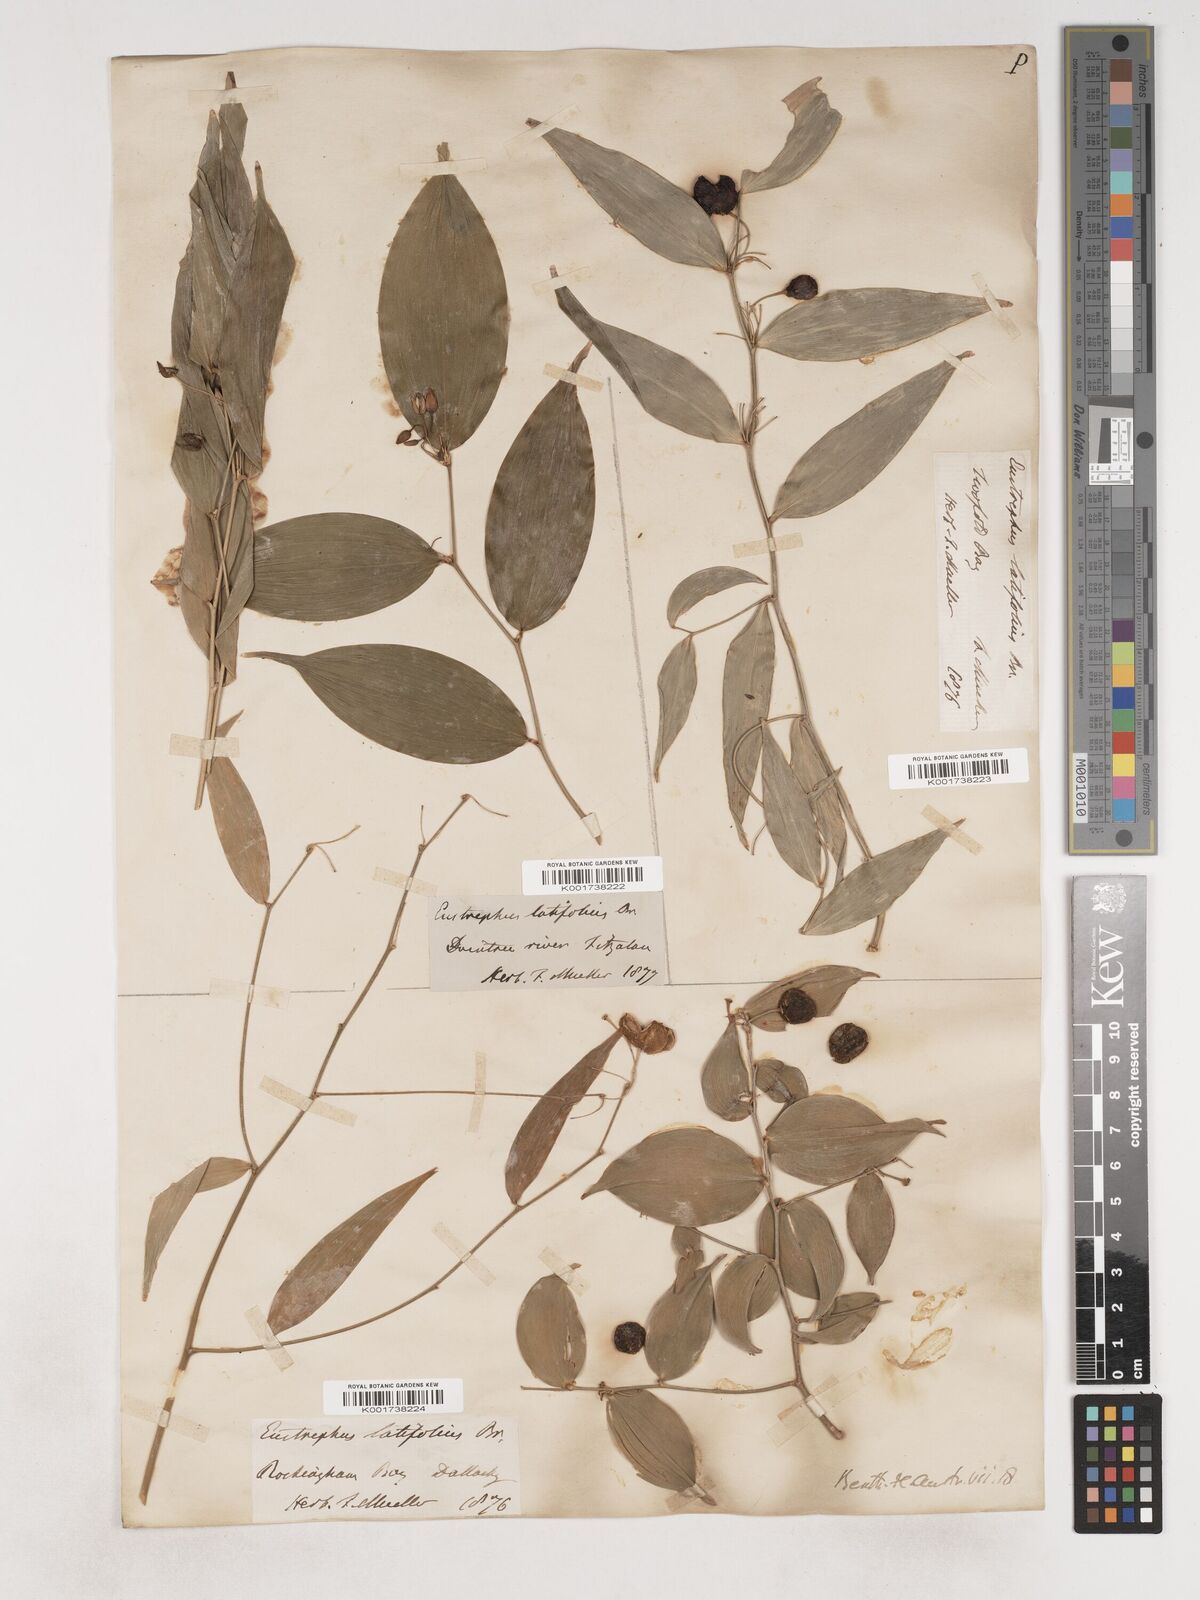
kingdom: Plantae
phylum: Tracheophyta
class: Liliopsida
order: Asparagales
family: Asparagaceae
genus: Eustrephus
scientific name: Eustrephus latifolius
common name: Orangevine
